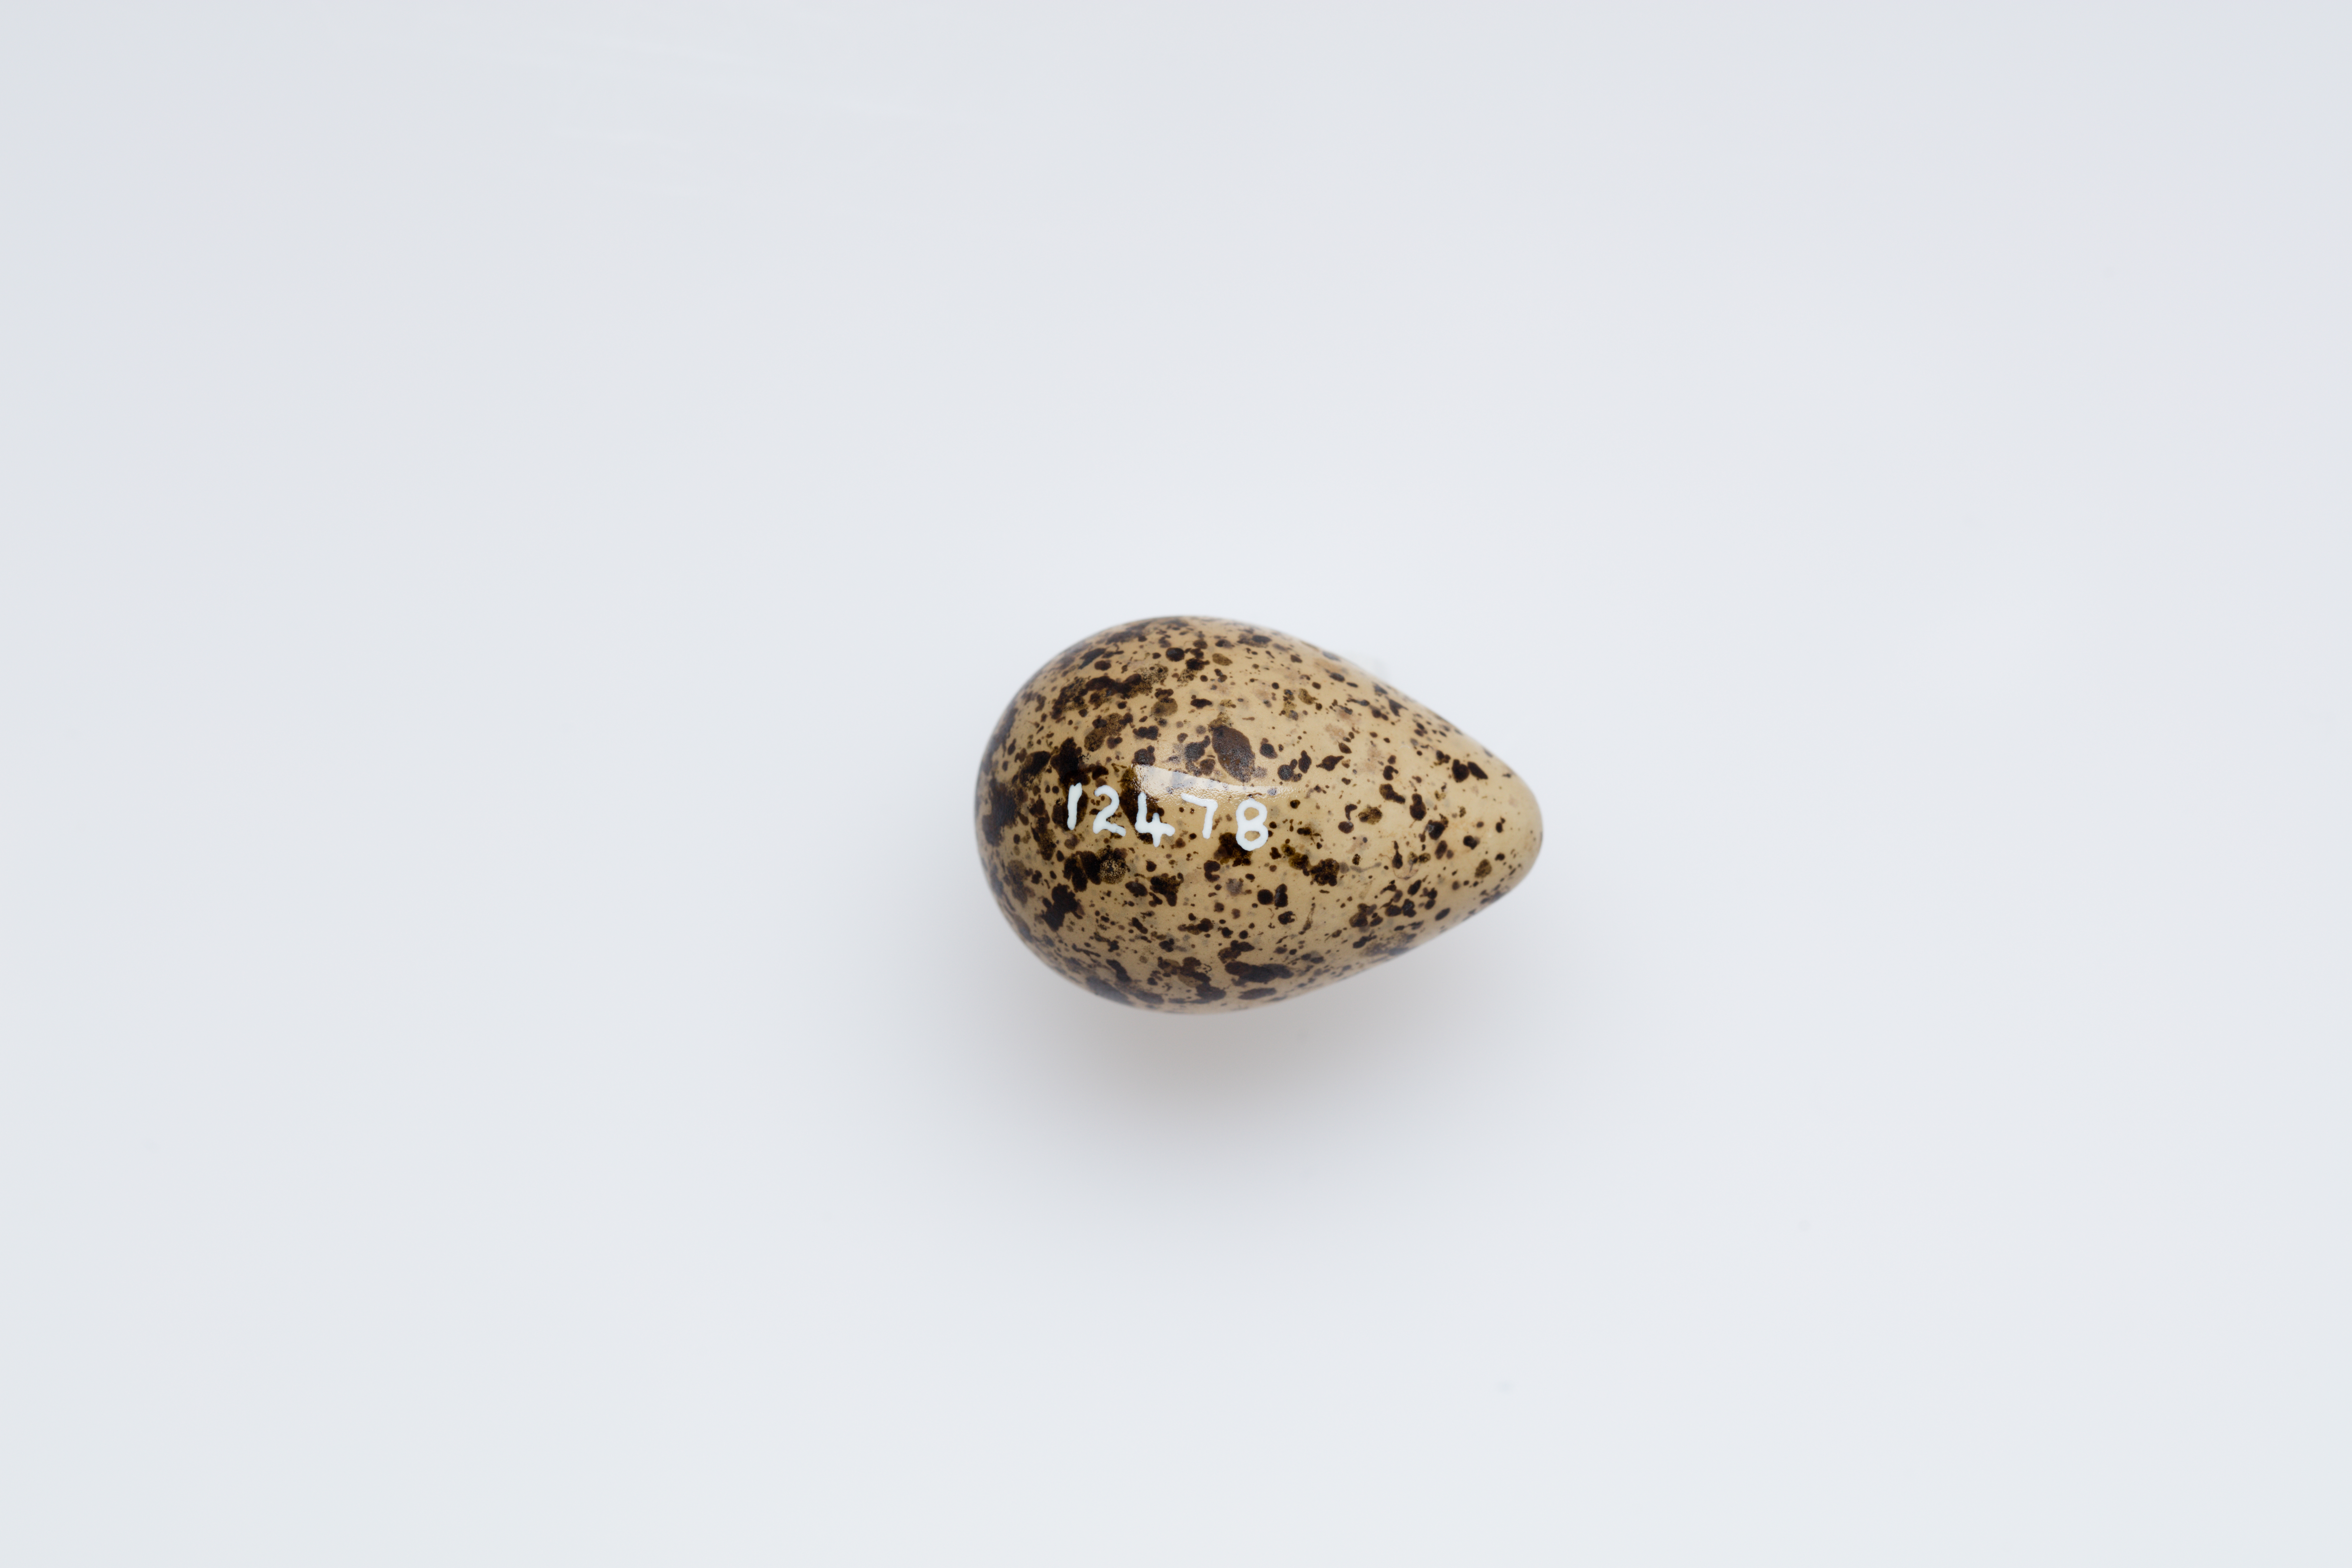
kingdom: Animalia
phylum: Chordata
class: Aves
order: Charadriiformes
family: Scolopacidae
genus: Phalaropus
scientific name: Phalaropus lobatus
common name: Red-necked phalarope
